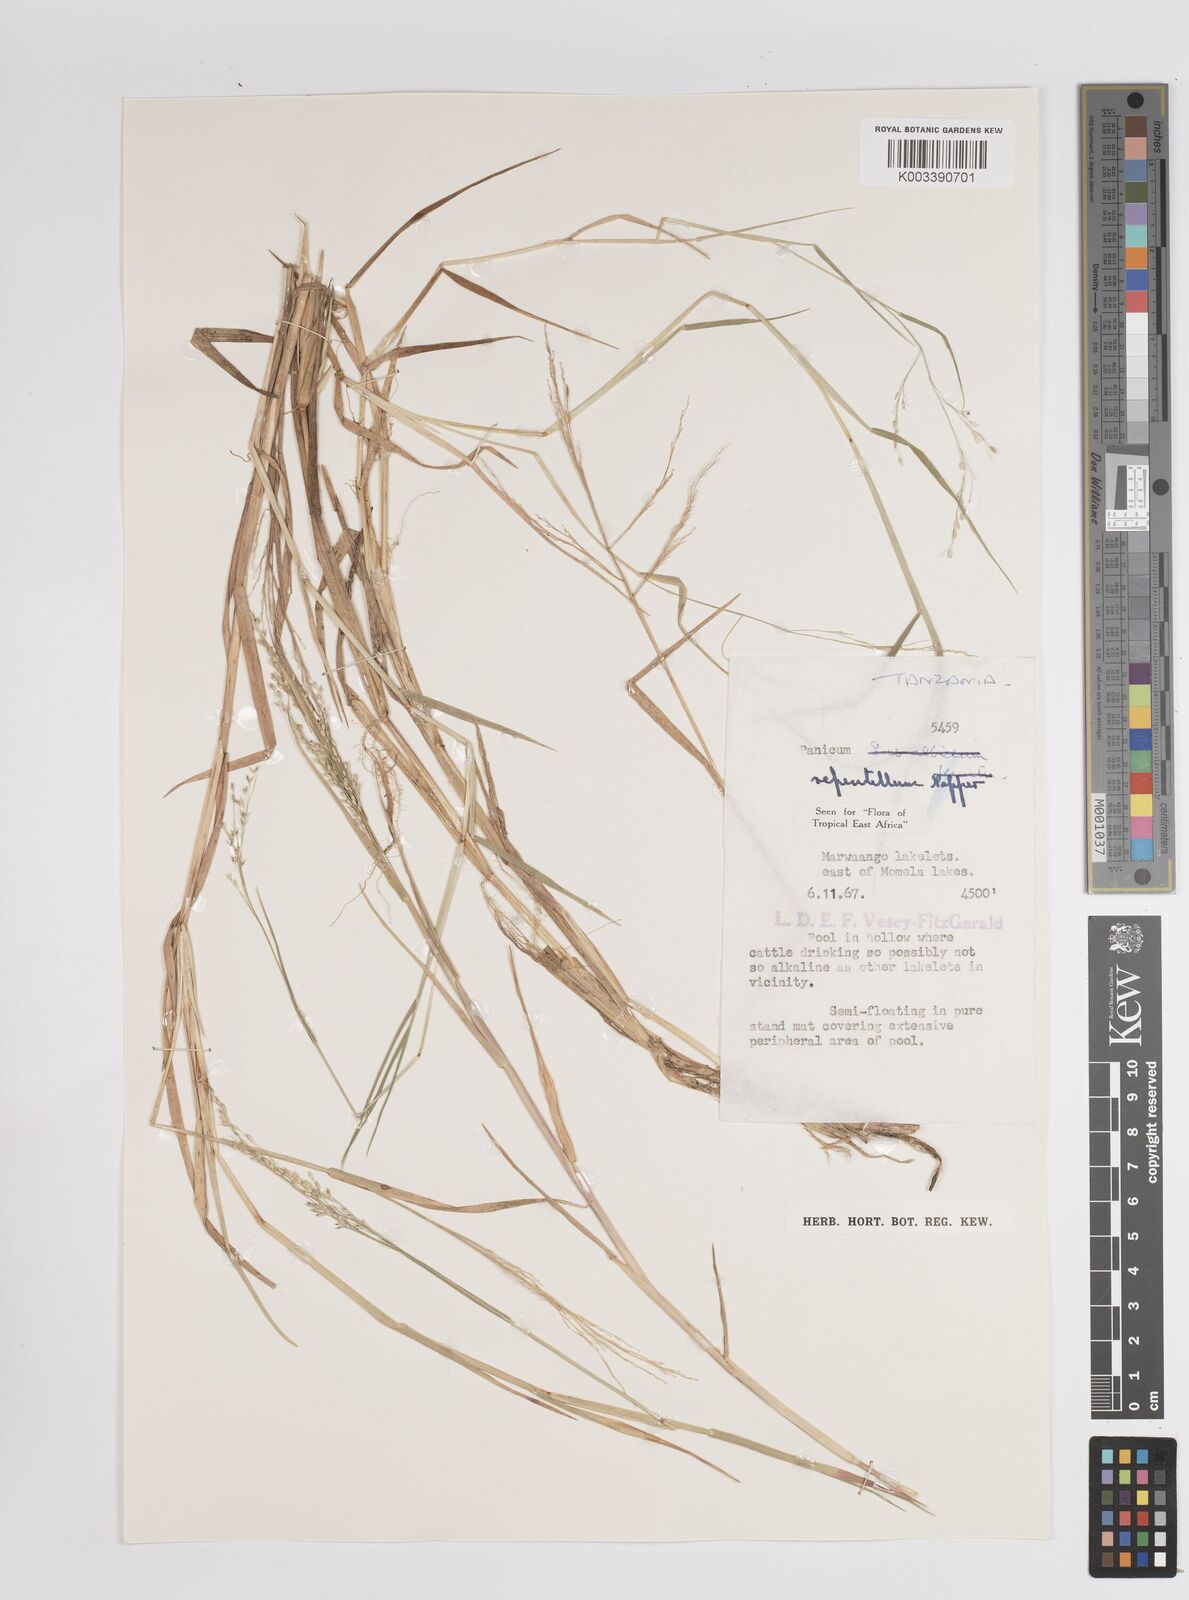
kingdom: Plantae
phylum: Tracheophyta
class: Liliopsida
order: Poales
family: Poaceae
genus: Panicum
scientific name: Panicum hygrocharis
